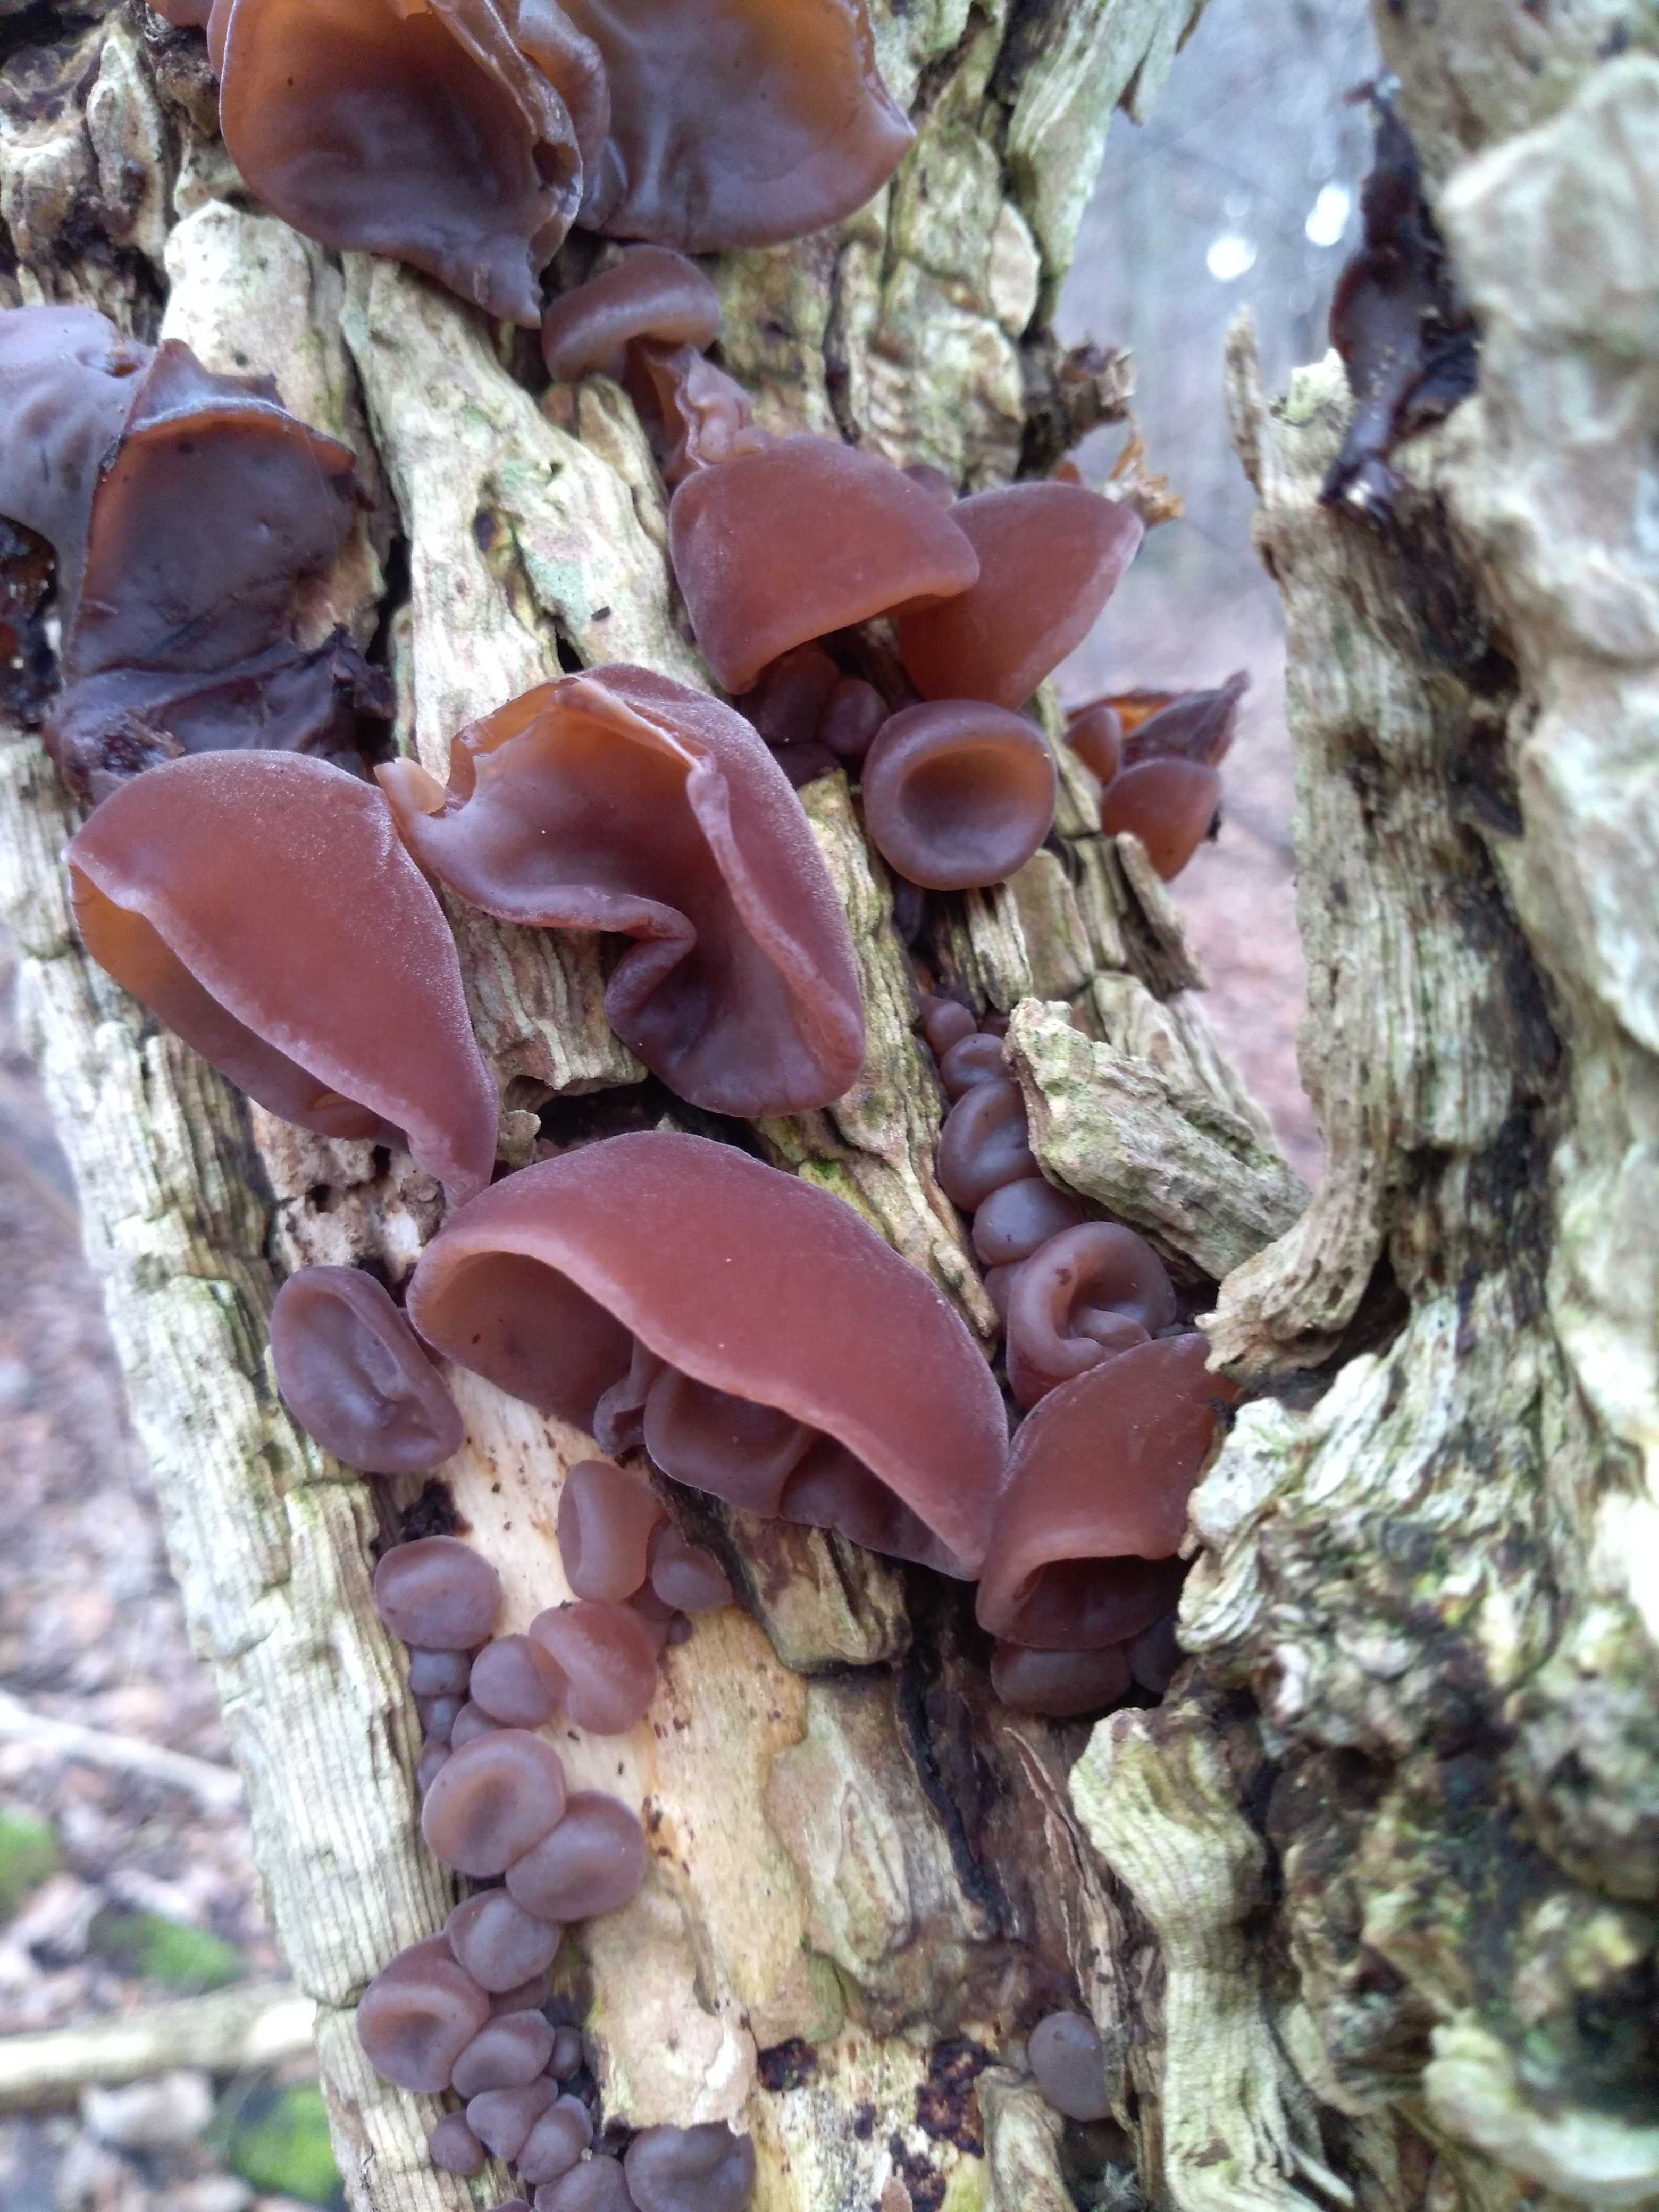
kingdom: Fungi
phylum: Basidiomycota
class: Agaricomycetes
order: Auriculariales
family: Auriculariaceae
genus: Auricularia
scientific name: Auricularia auricula-judae
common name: almindelig judasøre
